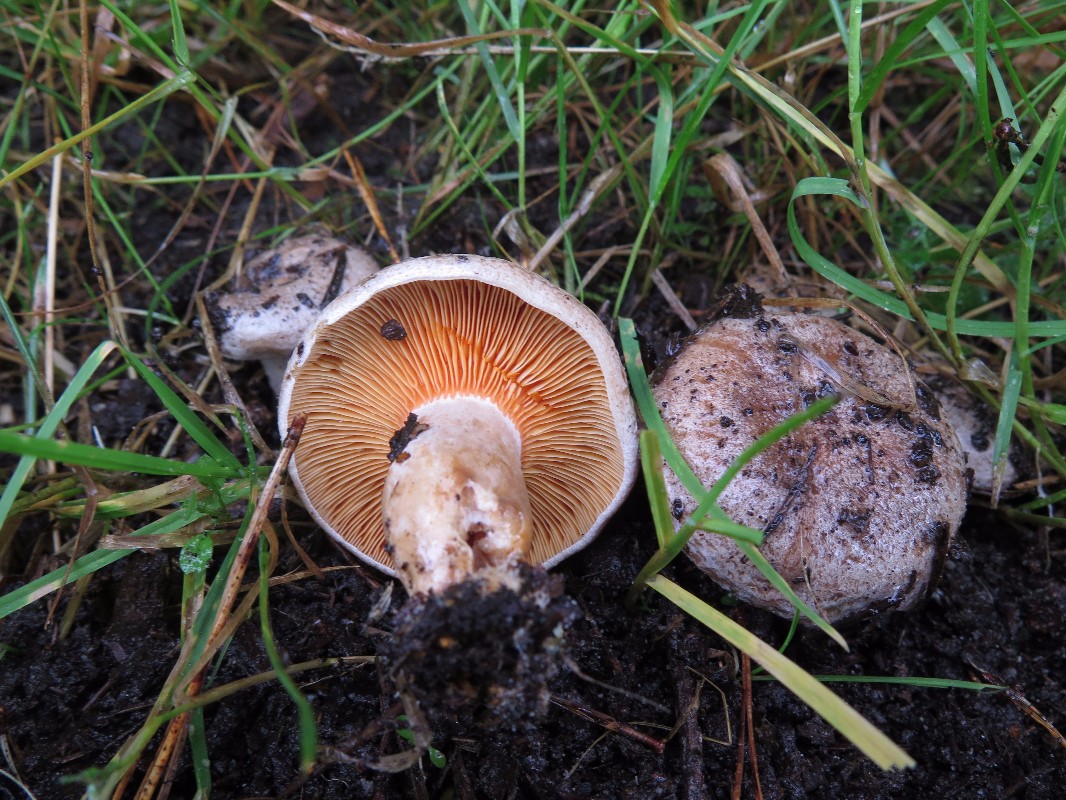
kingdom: Fungi
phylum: Basidiomycota
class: Agaricomycetes
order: Russulales
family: Russulaceae
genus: Lactarius
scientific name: Lactarius quieticolor
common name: tvefarvet mælkehat
